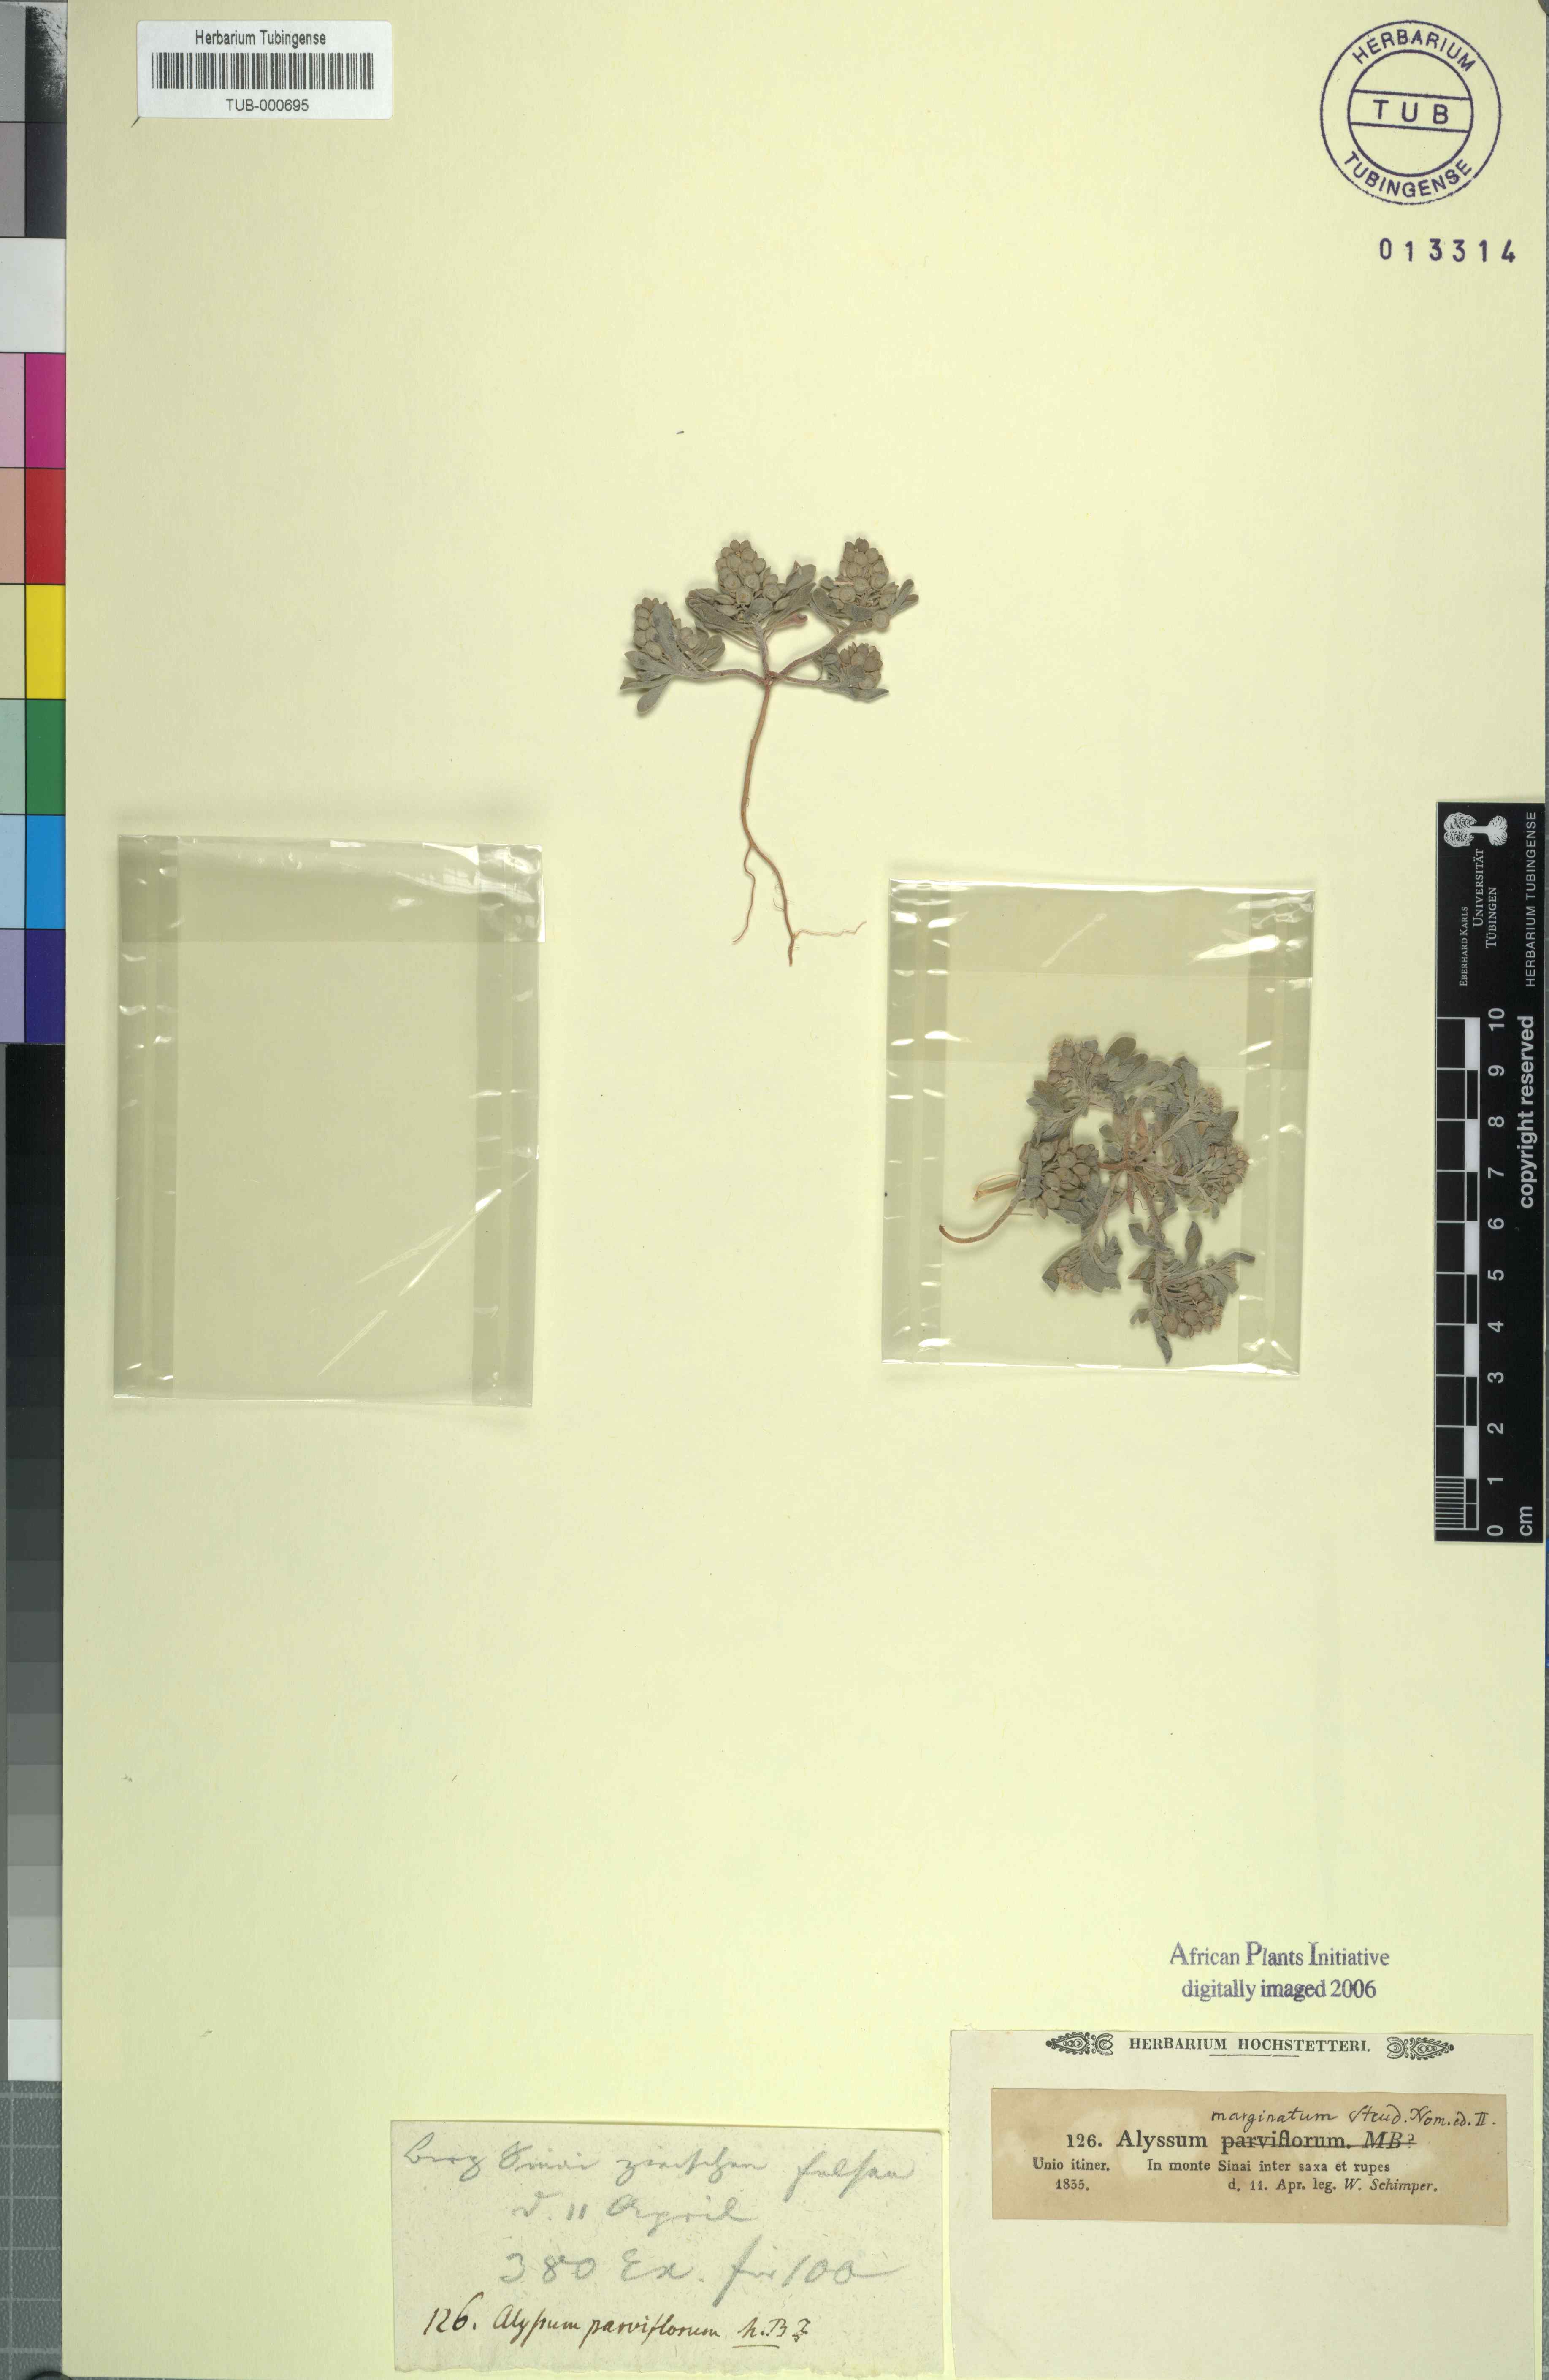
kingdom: Plantae
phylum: Tracheophyta
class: Magnoliopsida
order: Brassicales
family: Brassicaceae
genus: Alyssum
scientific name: Alyssum minutum
